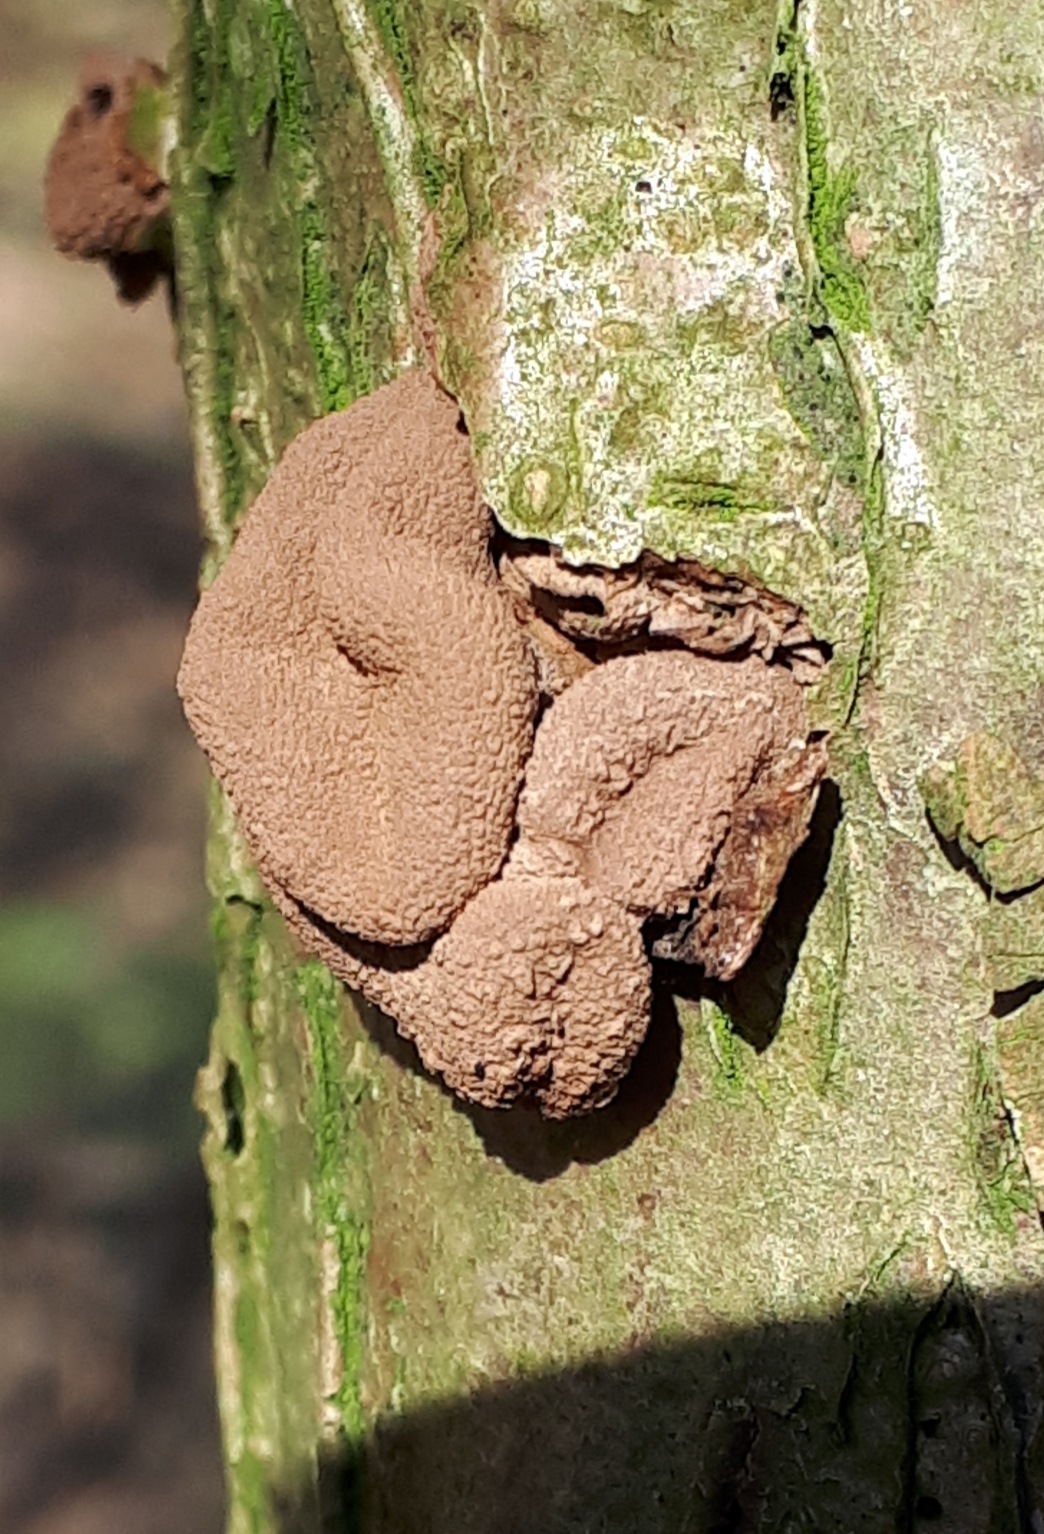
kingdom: Fungi
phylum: Ascomycota
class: Leotiomycetes
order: Helotiales
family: Cenangiaceae
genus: Encoelia
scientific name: Encoelia furfuracea
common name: hassel-læderskive
